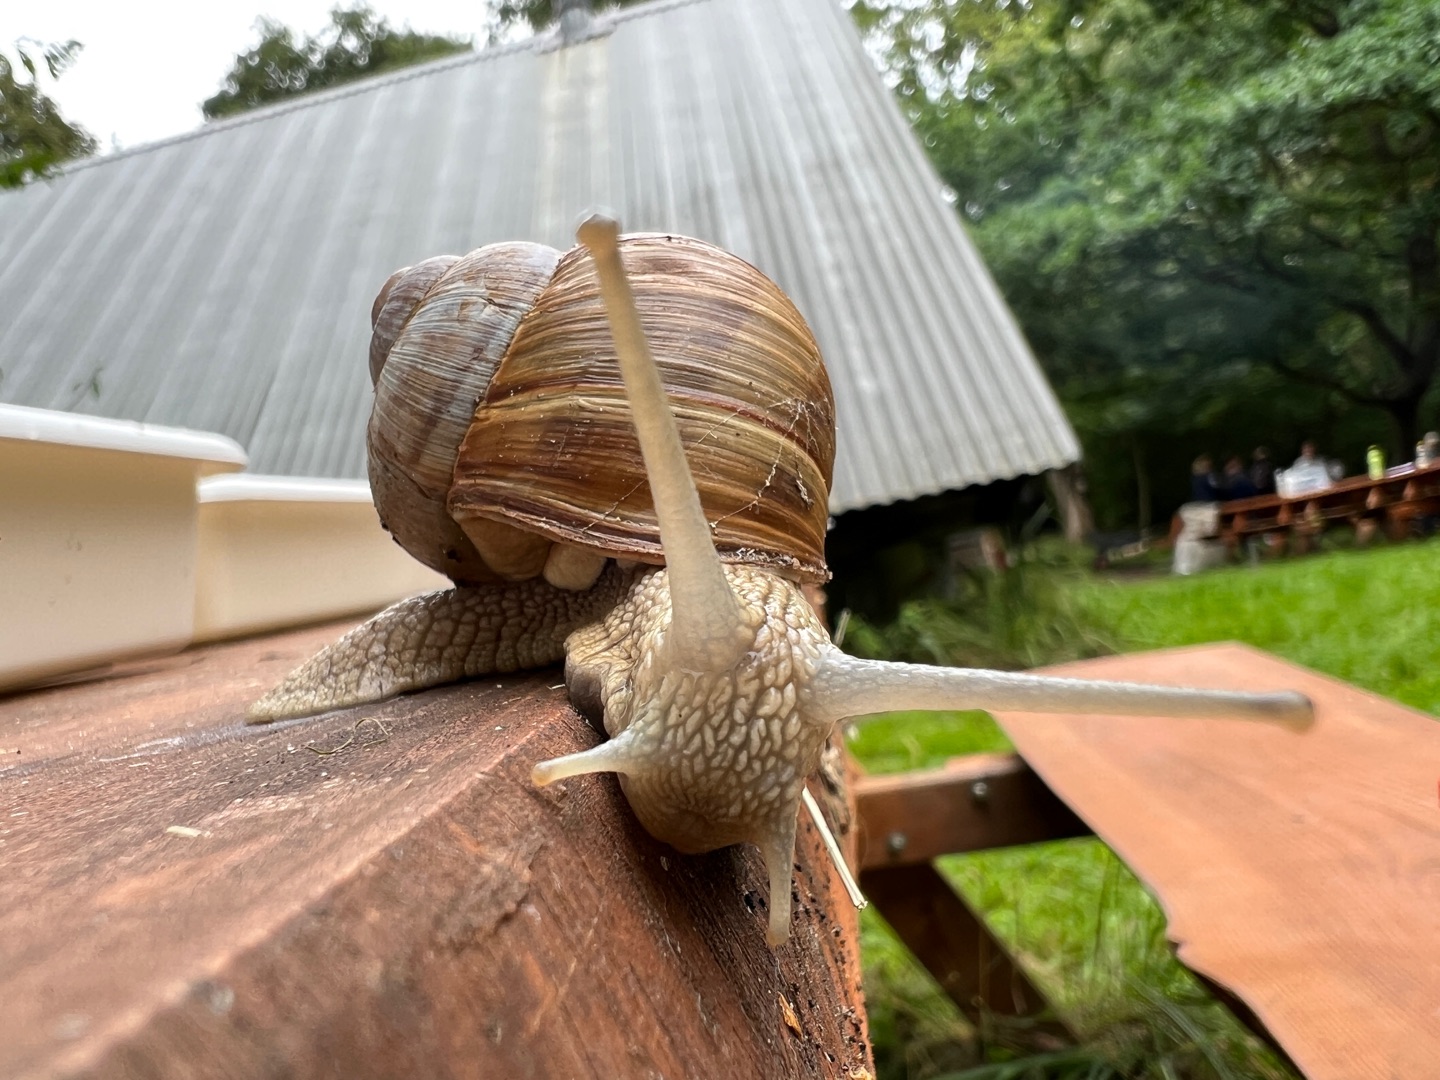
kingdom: Animalia
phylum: Mollusca
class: Gastropoda
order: Stylommatophora
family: Helicidae
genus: Helix
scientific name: Helix pomatia
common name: Vinbjergsnegl
